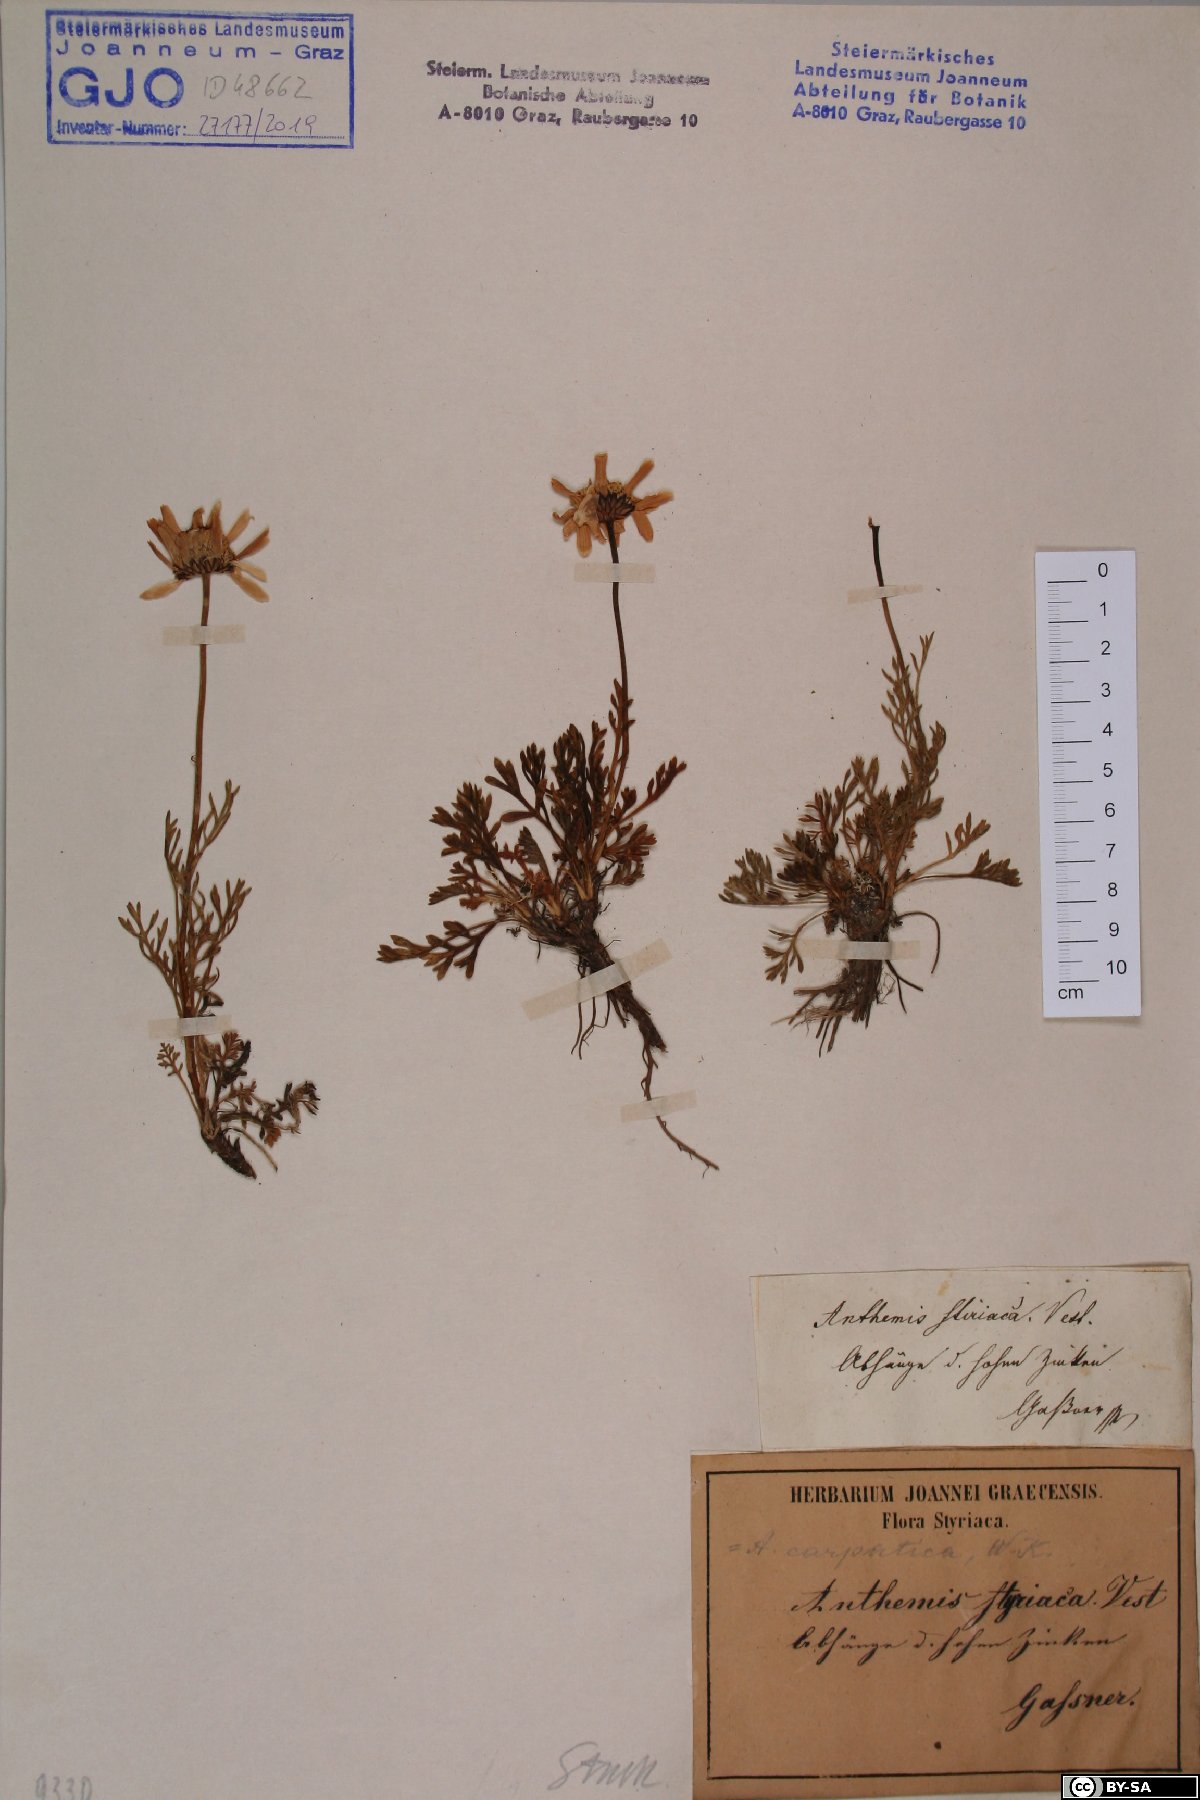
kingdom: Plantae
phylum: Tracheophyta
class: Magnoliopsida
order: Asterales
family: Asteraceae
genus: Anthemis
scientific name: Anthemis cretica
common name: Mountain dog-daisy
